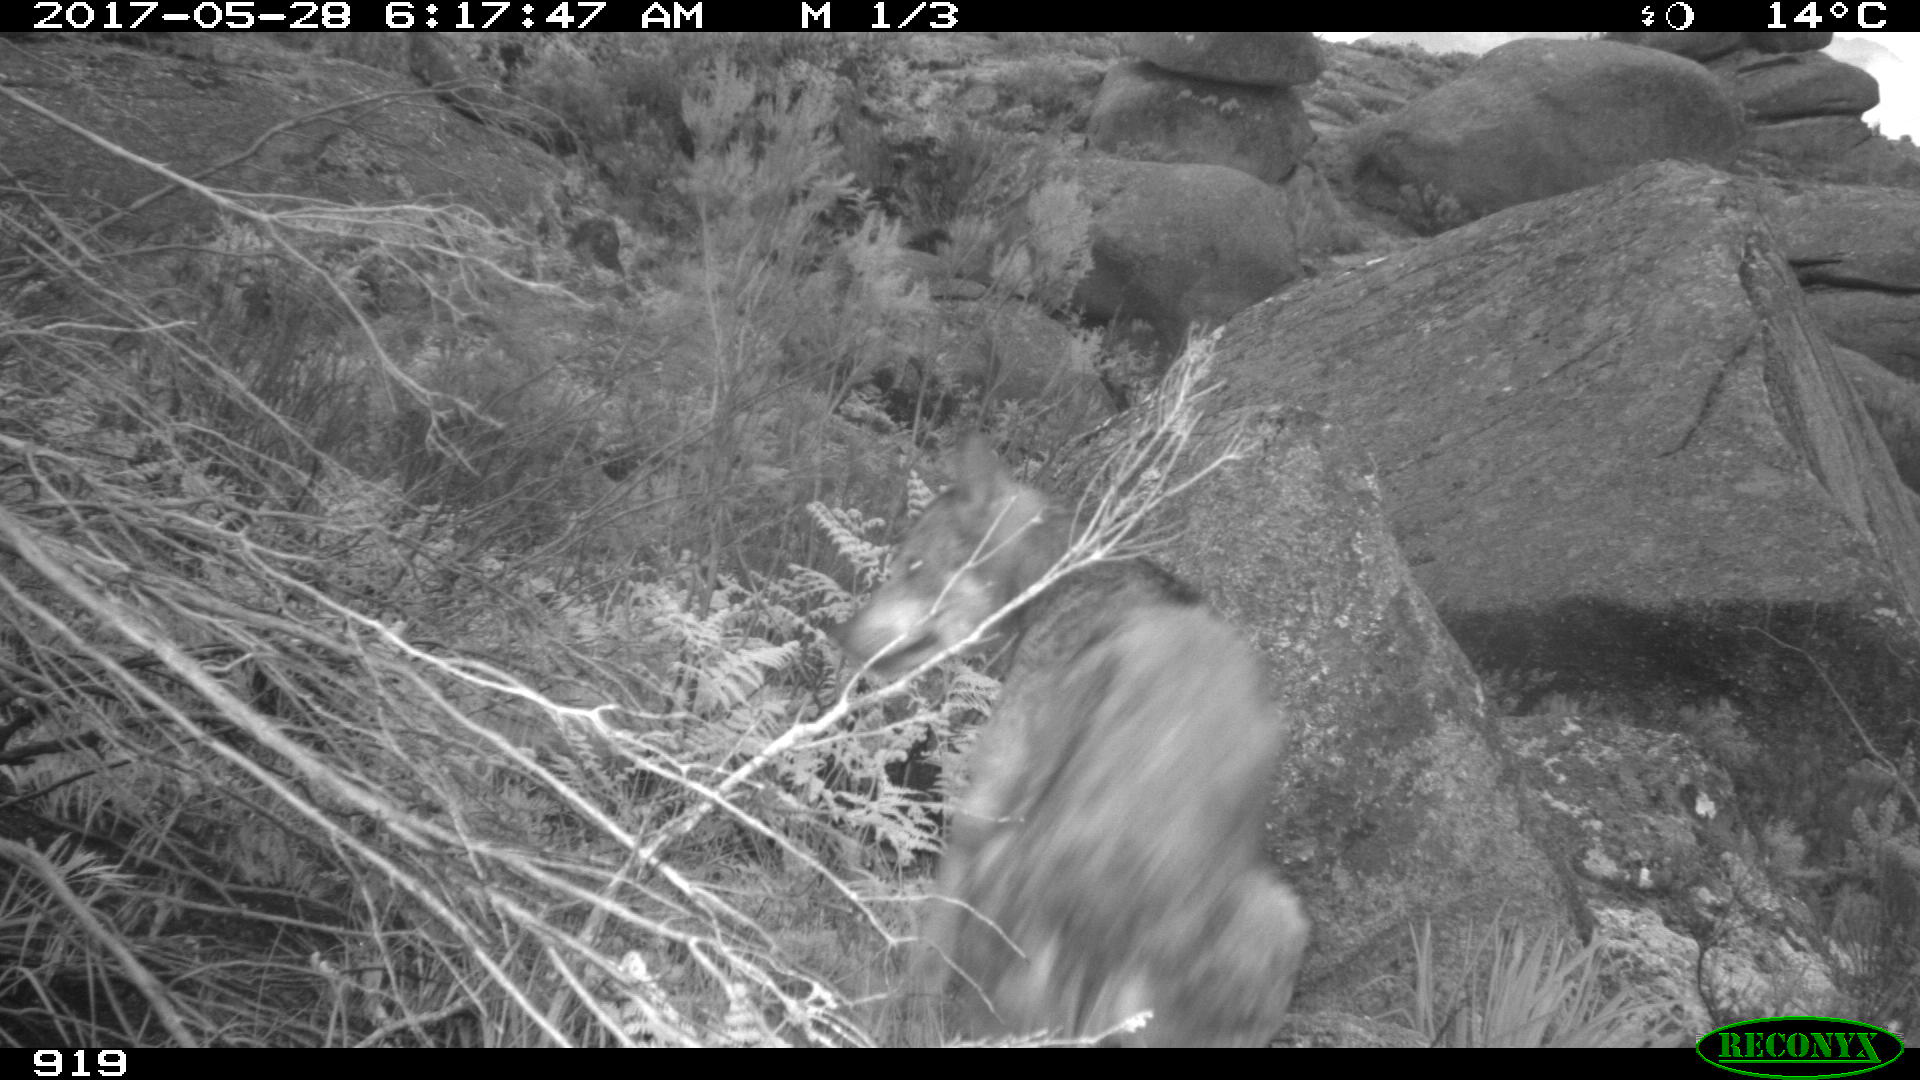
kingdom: Animalia
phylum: Chordata
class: Mammalia
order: Carnivora
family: Canidae
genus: Canis
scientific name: Canis lupus
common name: Gray wolf
